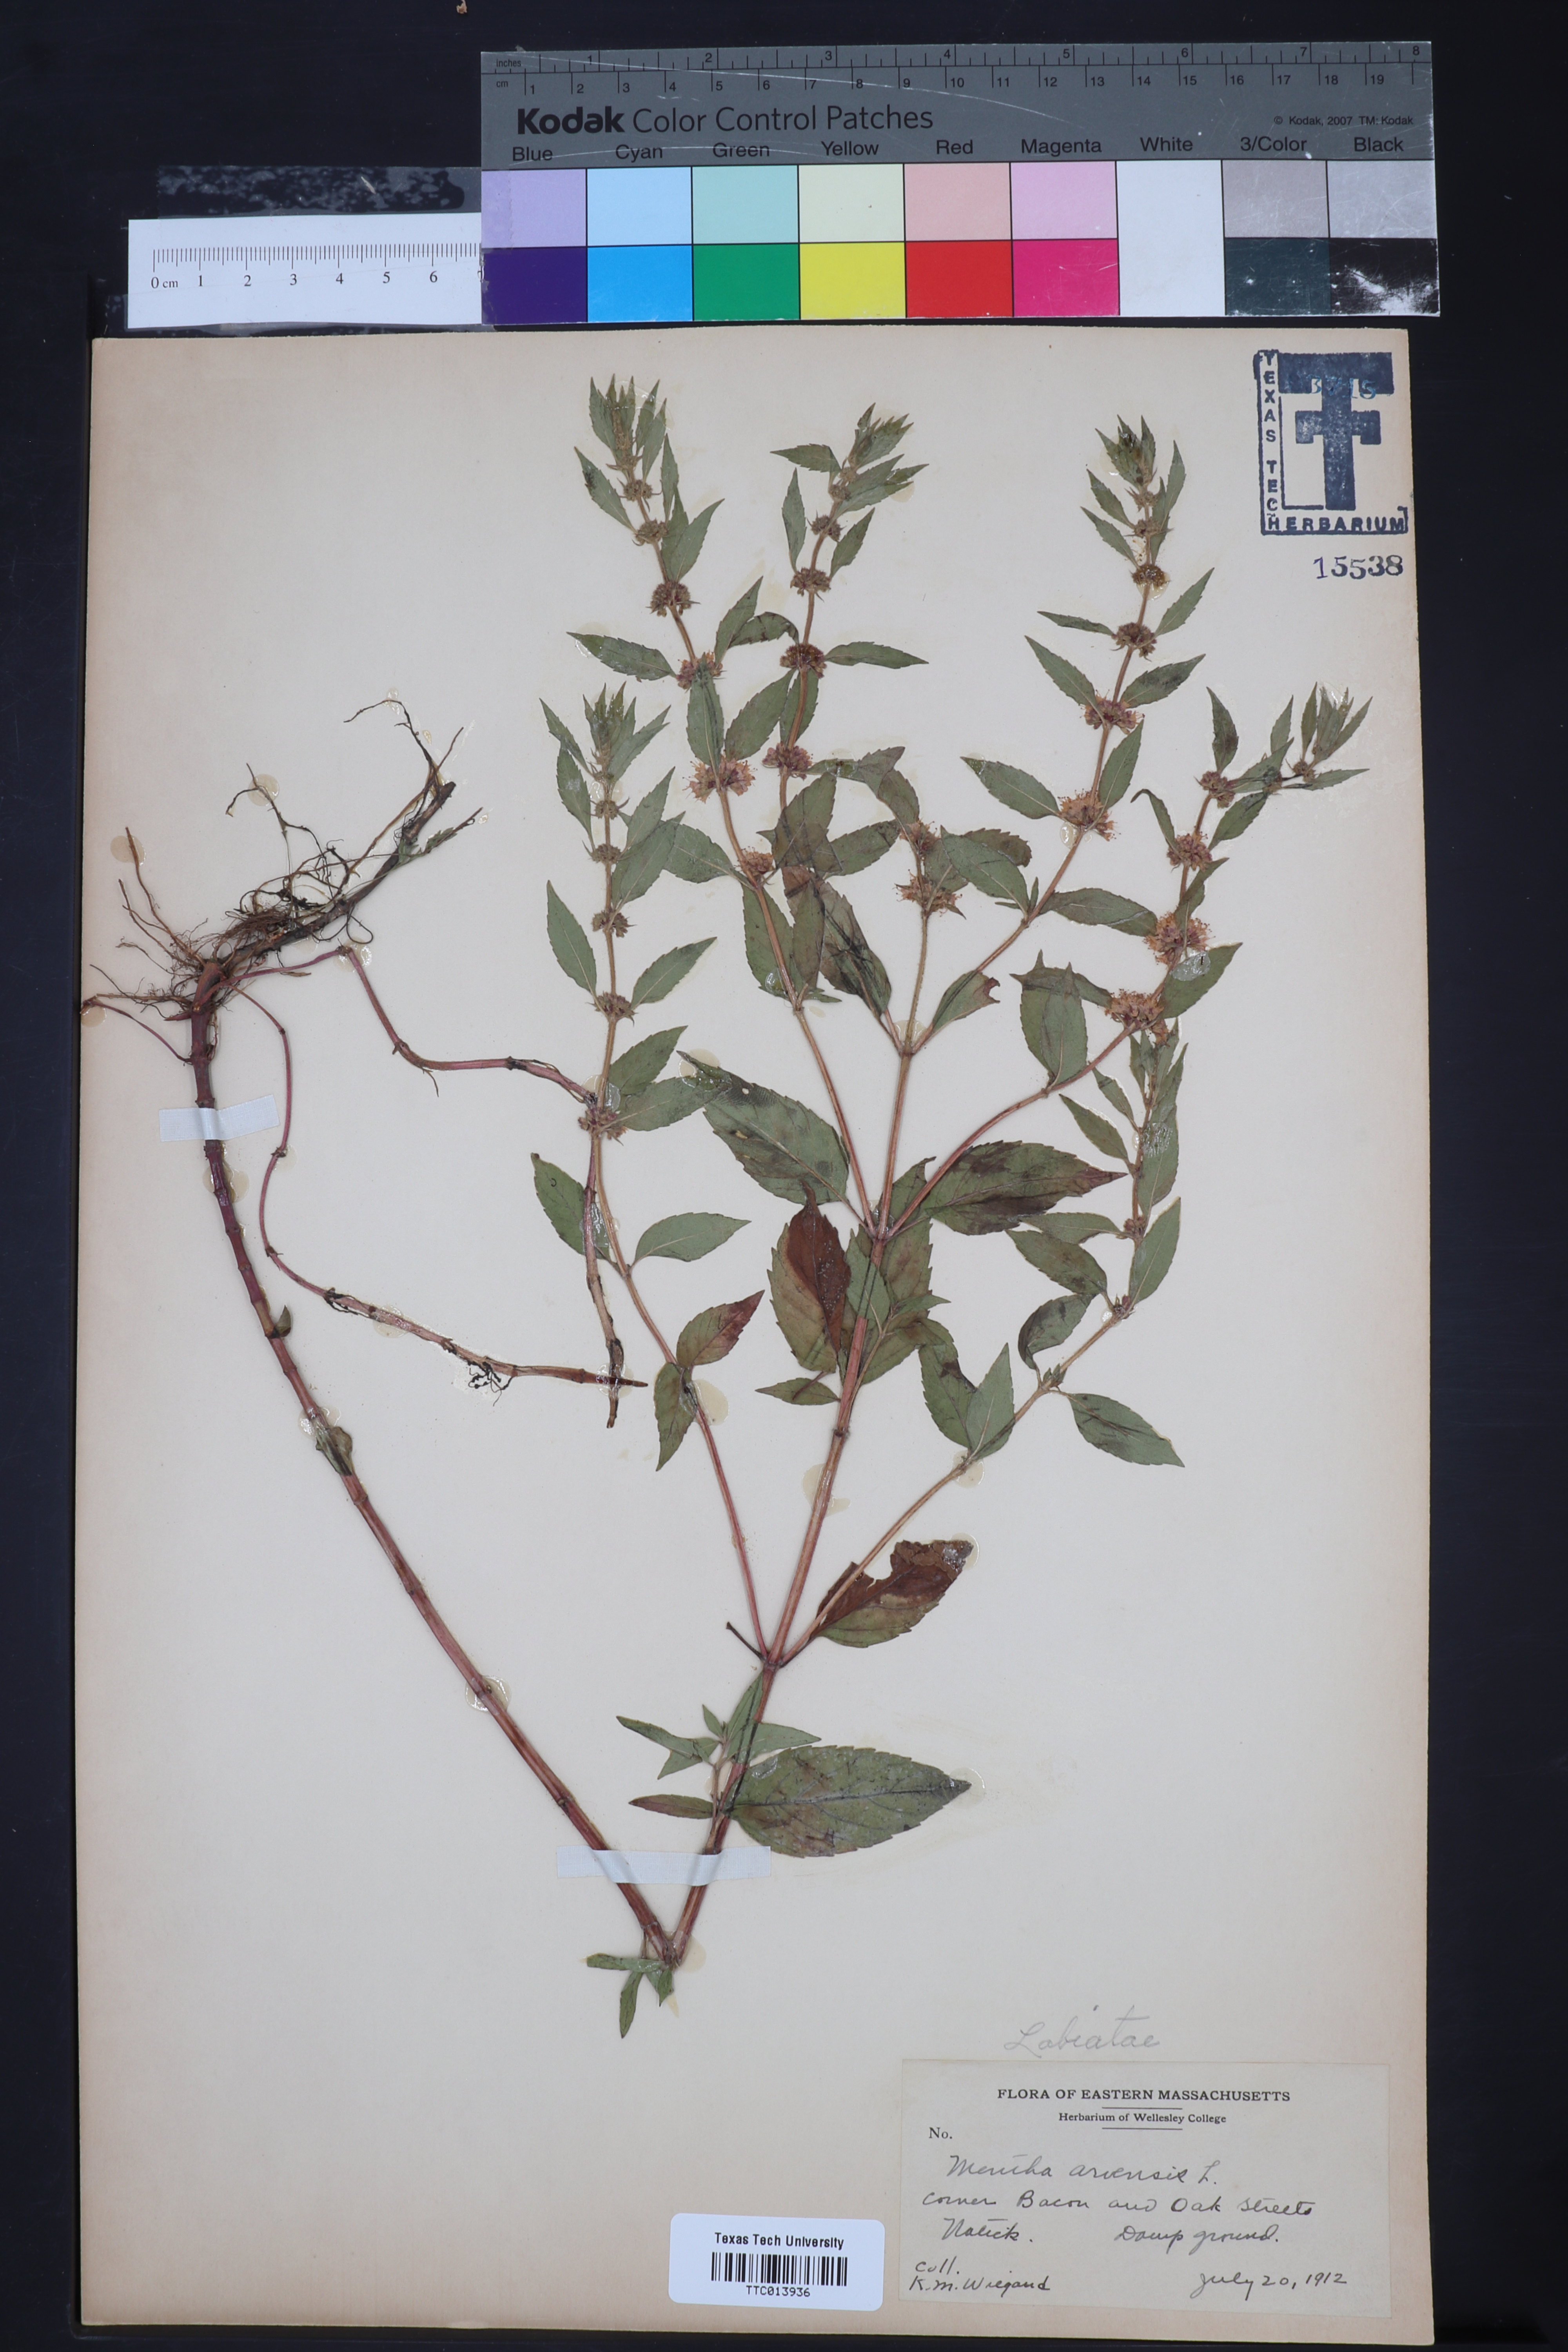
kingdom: Plantae
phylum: Tracheophyta
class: Magnoliopsida
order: Lamiales
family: Lamiaceae
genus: Mentha
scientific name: Mentha arvensis
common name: Corn mint
